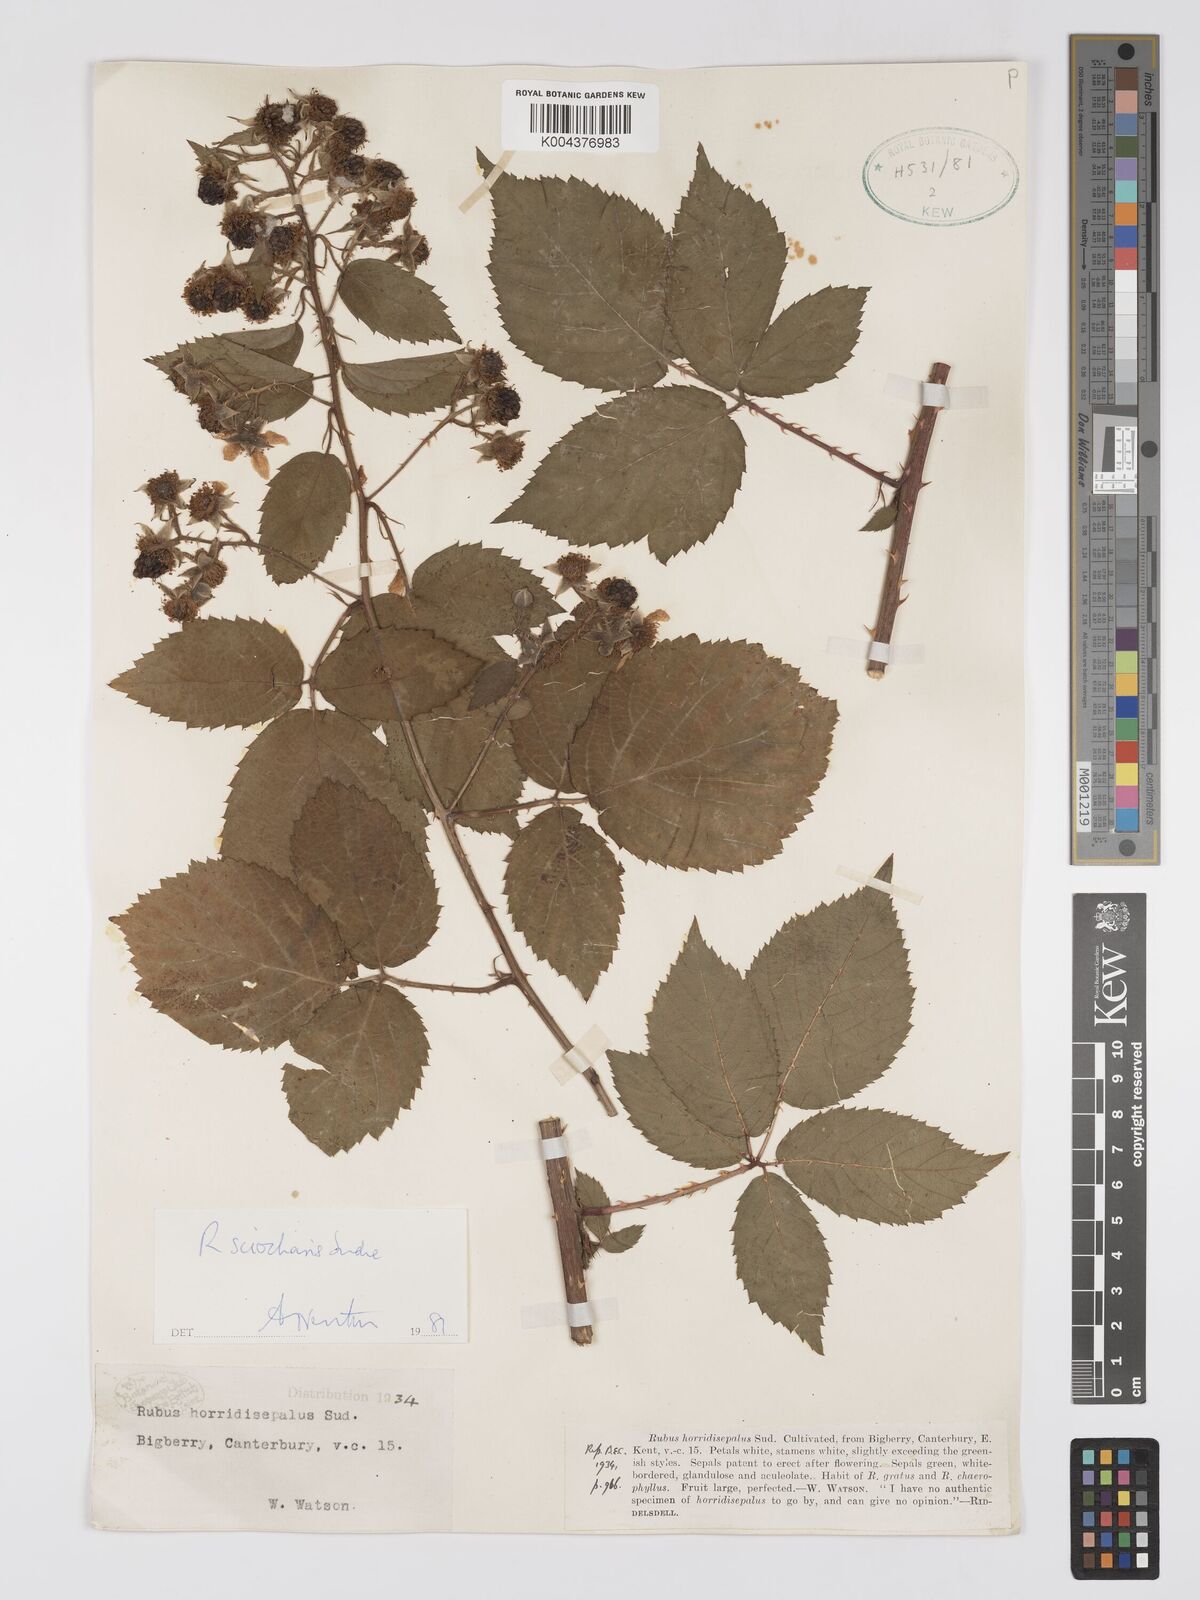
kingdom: Plantae
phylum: Tracheophyta
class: Magnoliopsida
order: Rosales
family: Rosaceae
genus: Rubus
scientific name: Rubus sciocharis
